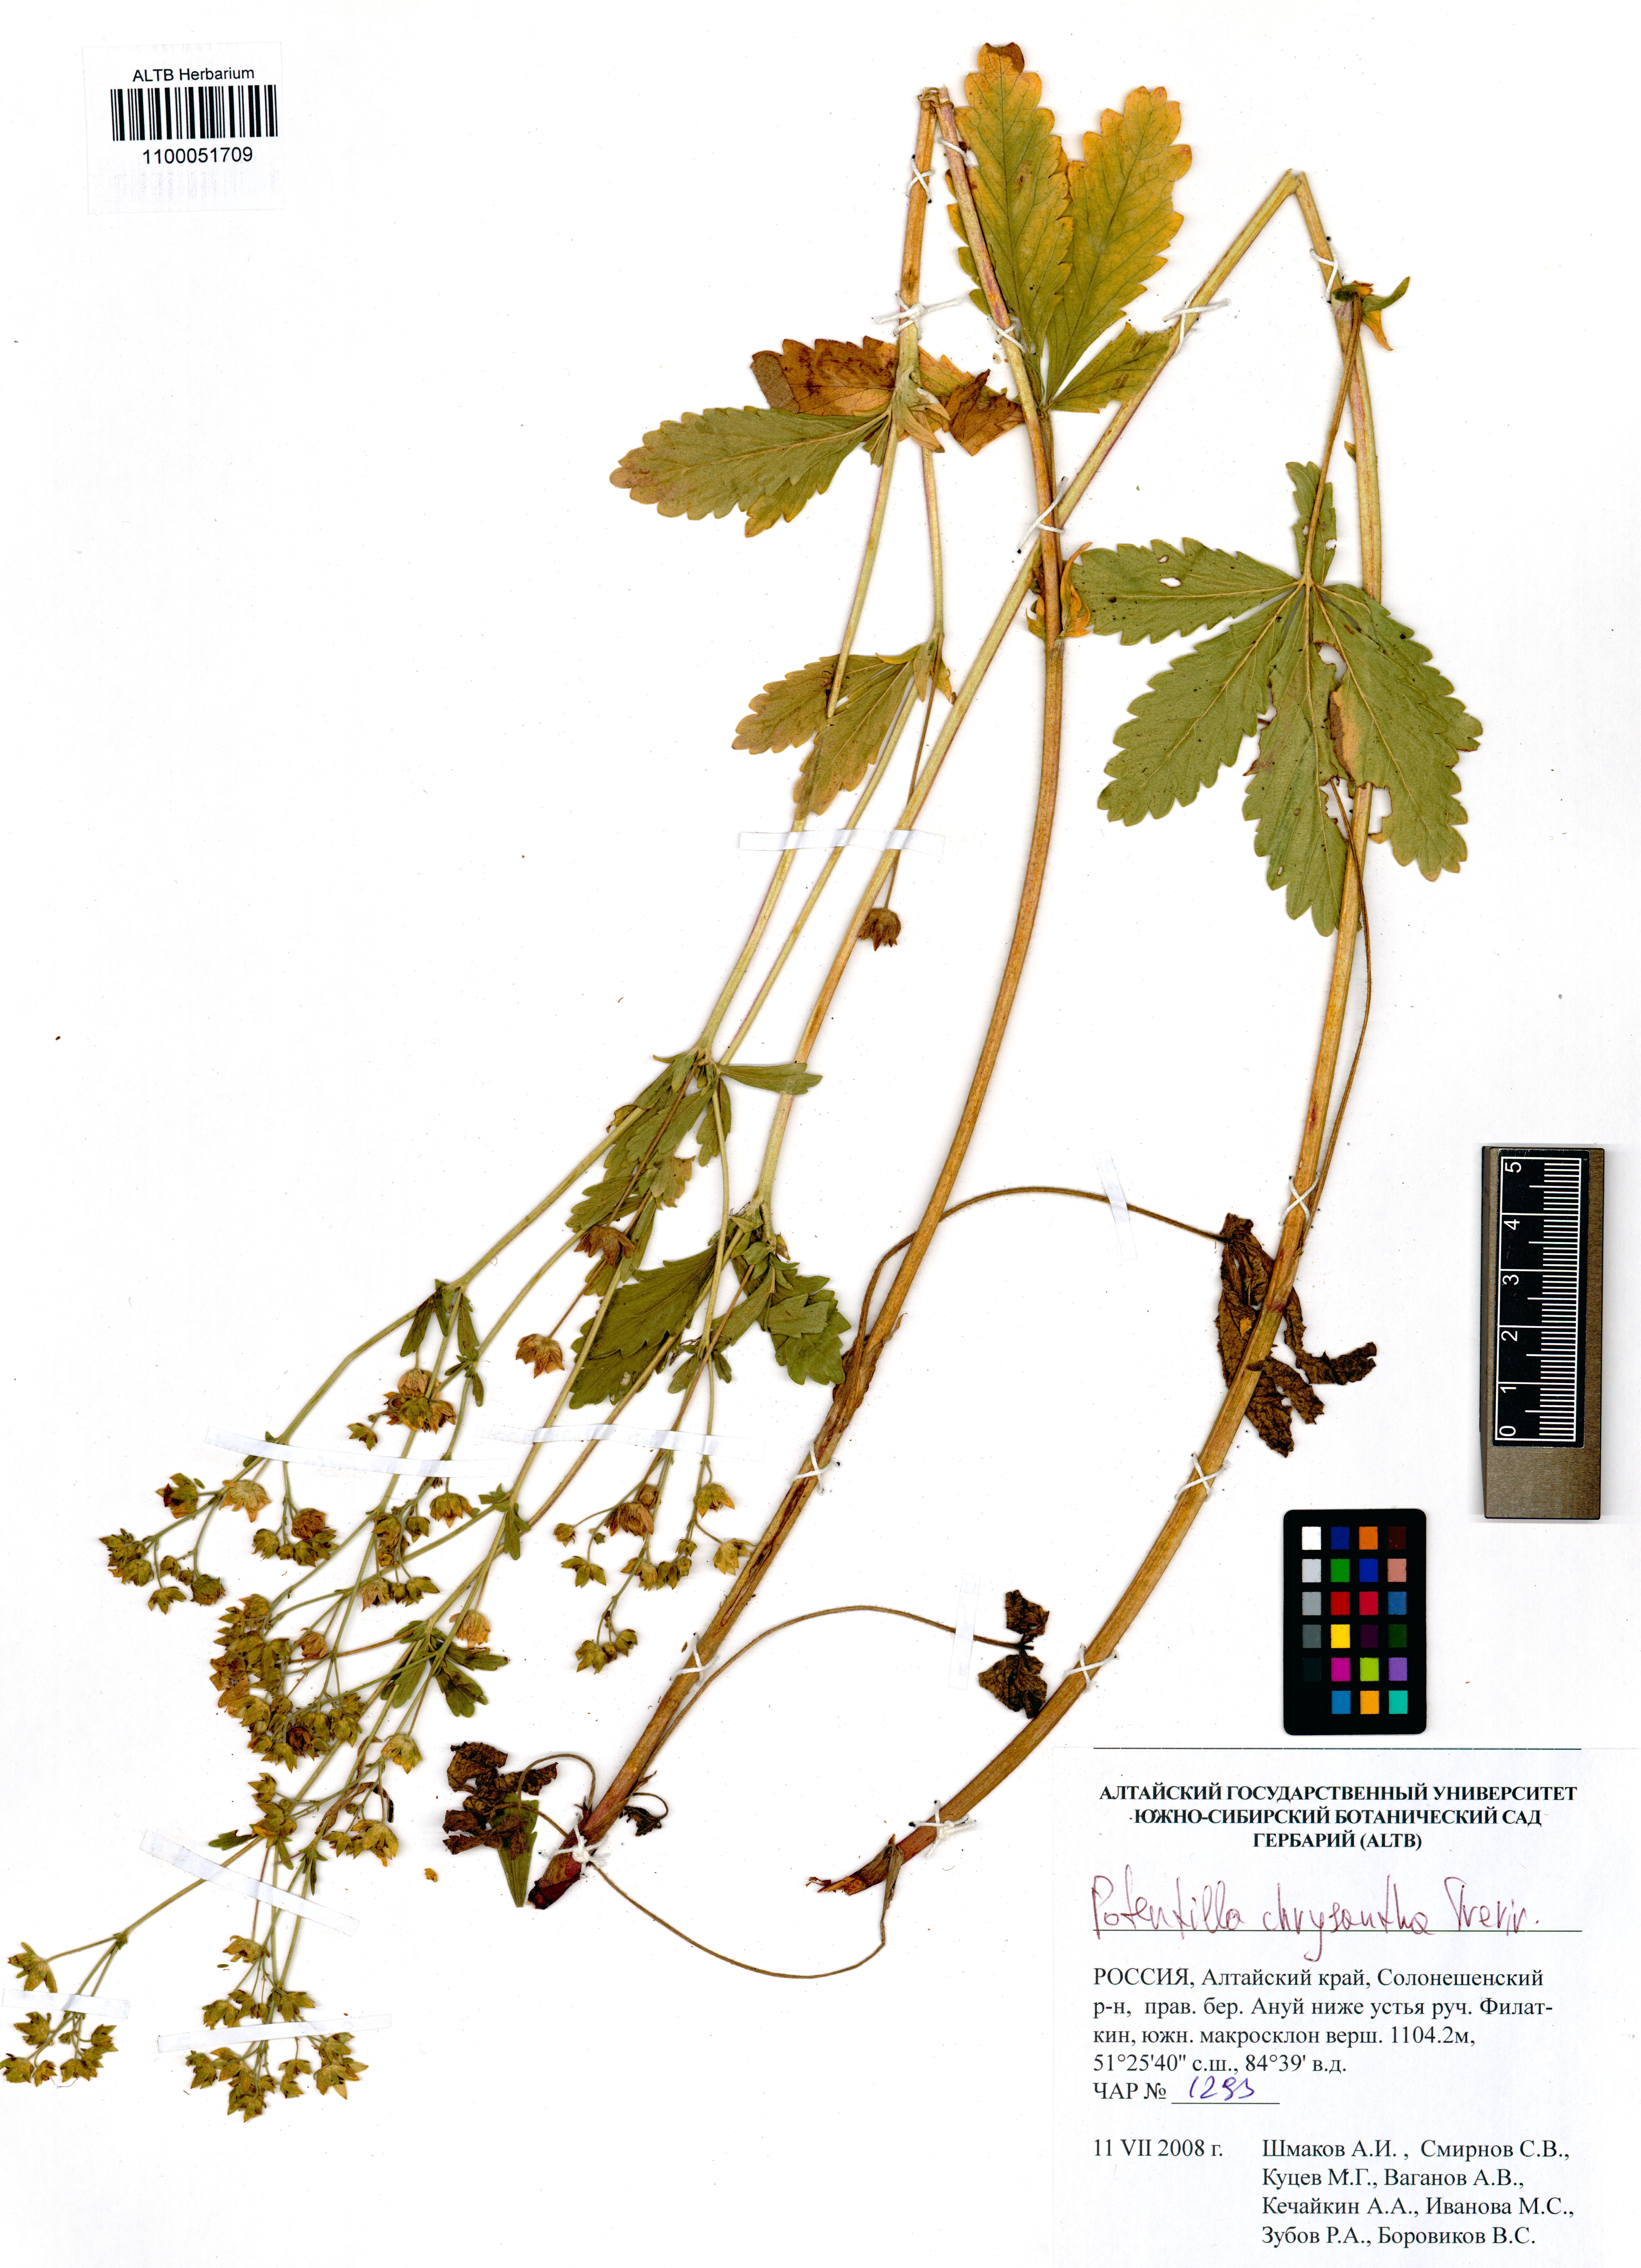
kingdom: Plantae
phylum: Tracheophyta
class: Magnoliopsida
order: Rosales
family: Rosaceae
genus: Potentilla
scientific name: Potentilla chrysantha
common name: Thuringian cinquefoil
